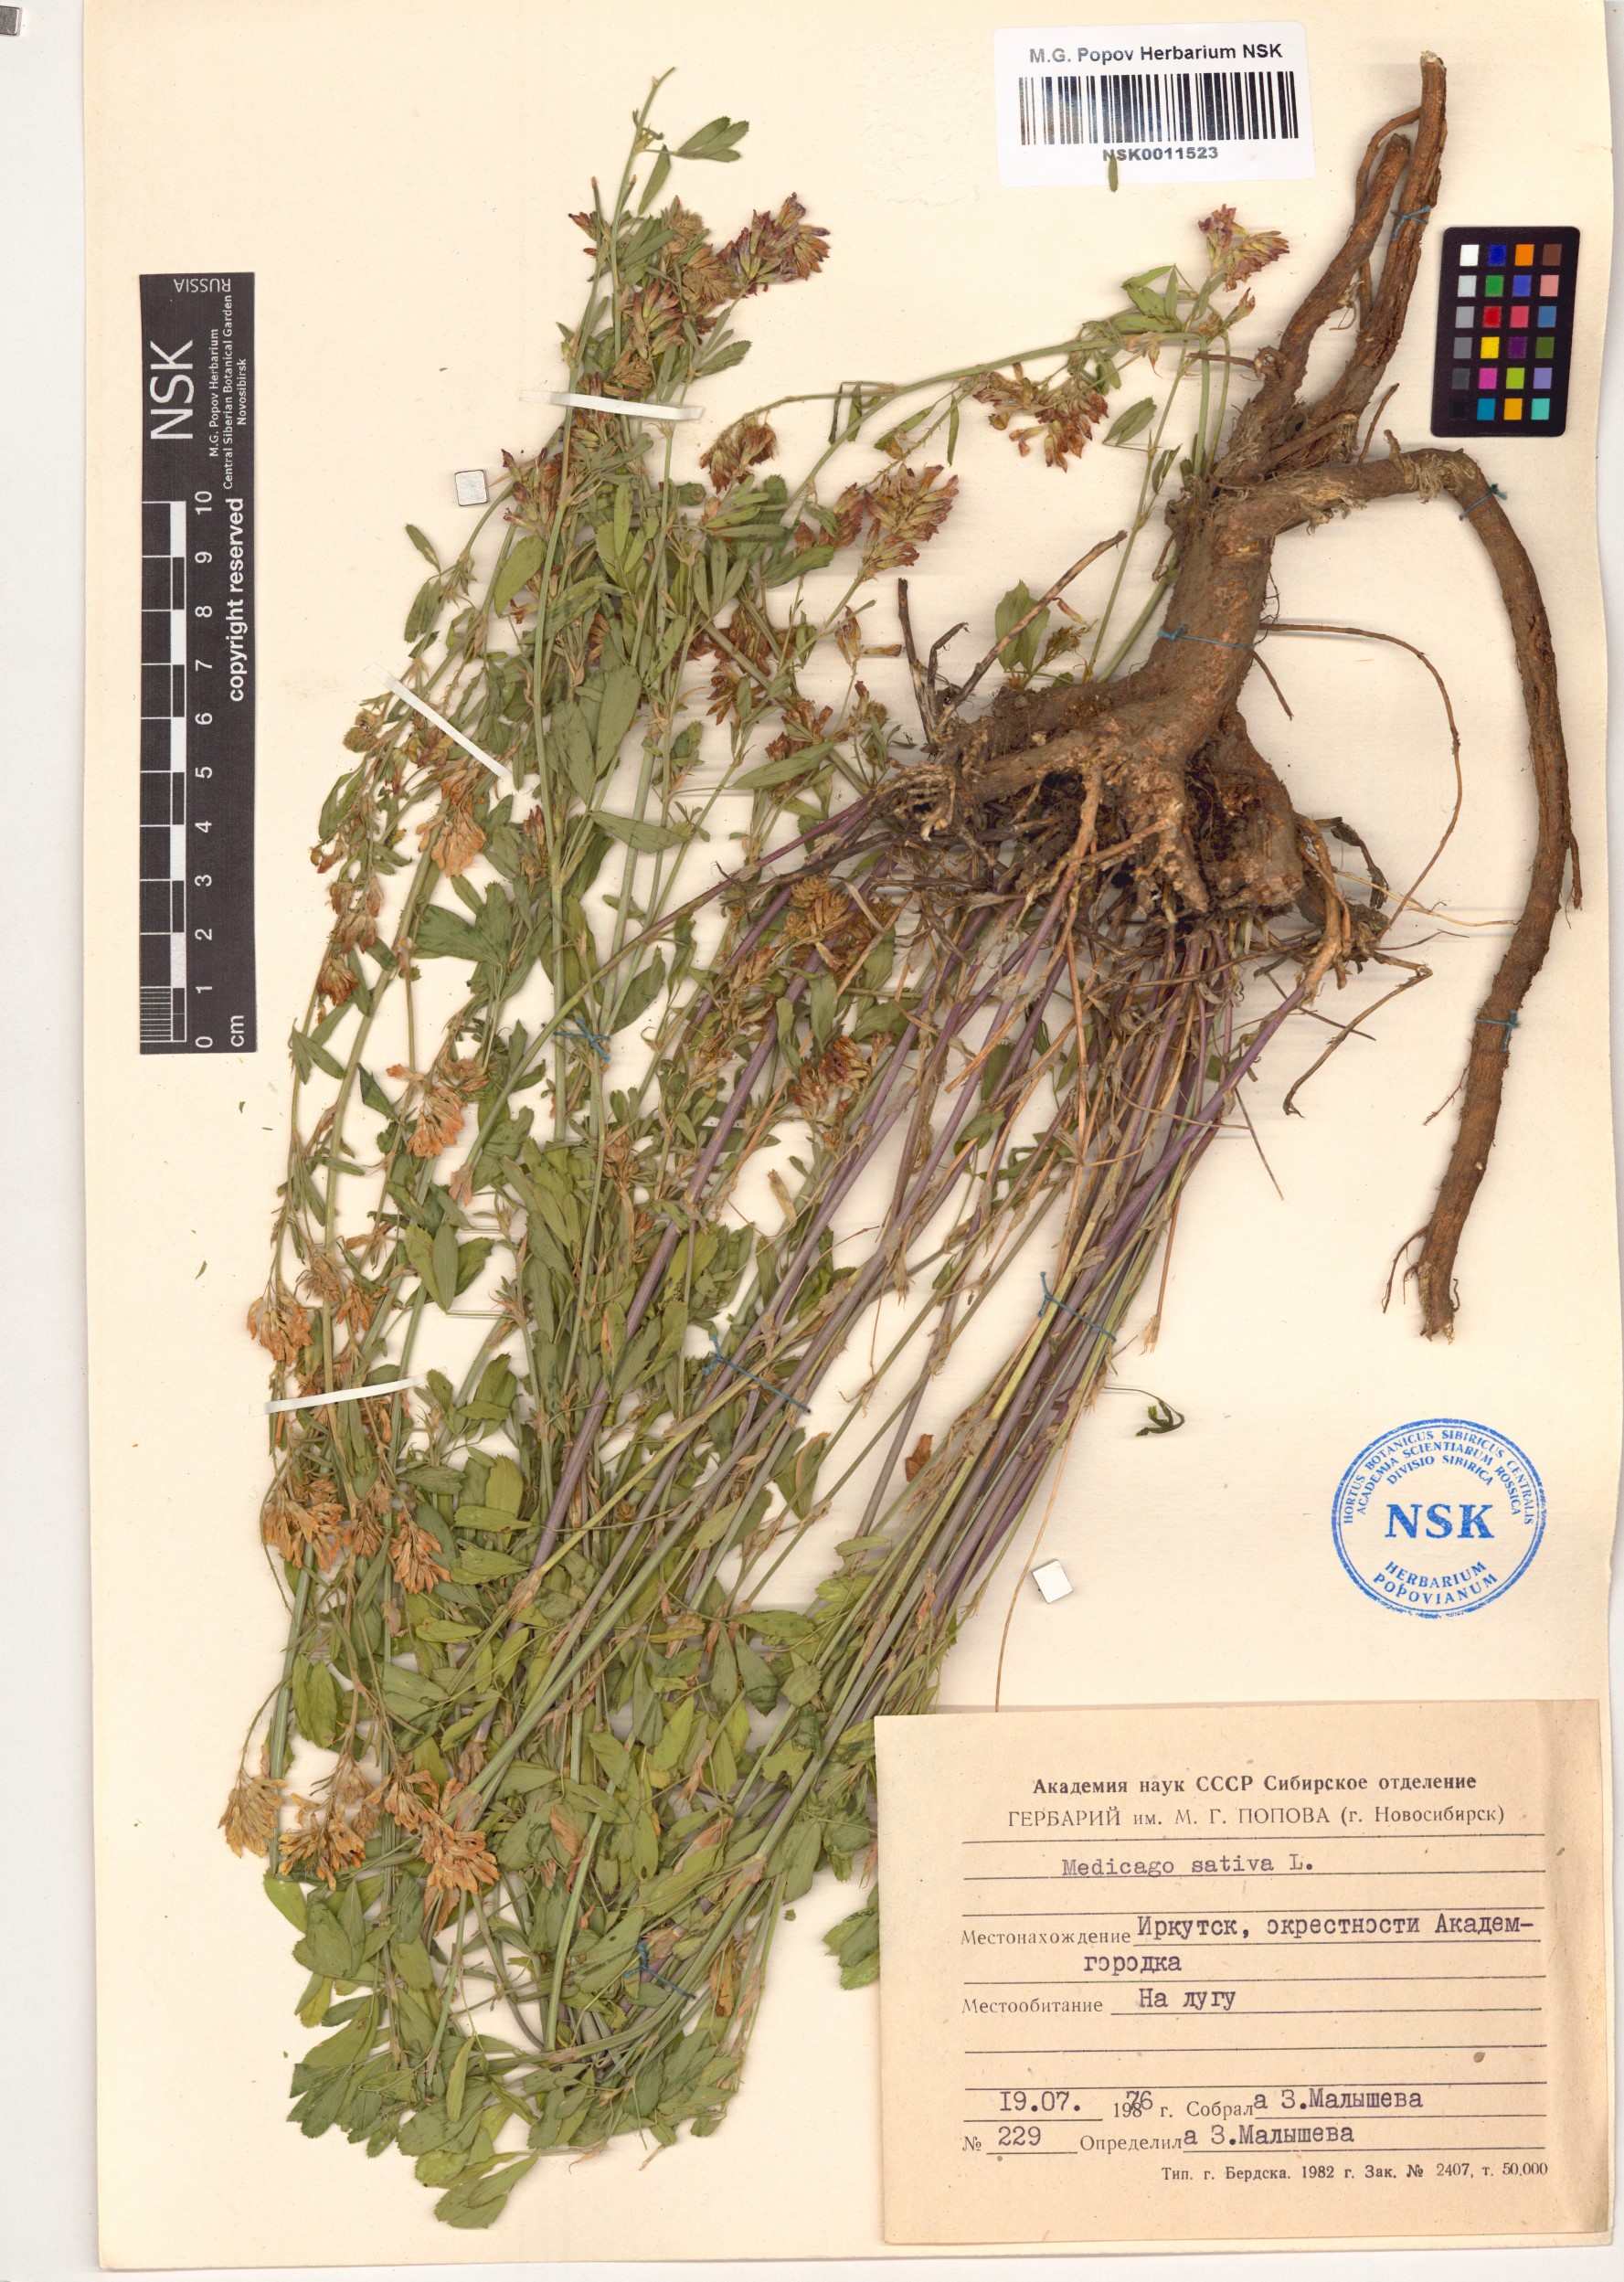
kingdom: Plantae
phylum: Tracheophyta
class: Magnoliopsida
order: Fabales
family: Fabaceae
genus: Medicago
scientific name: Medicago sativa
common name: Alfalfa
